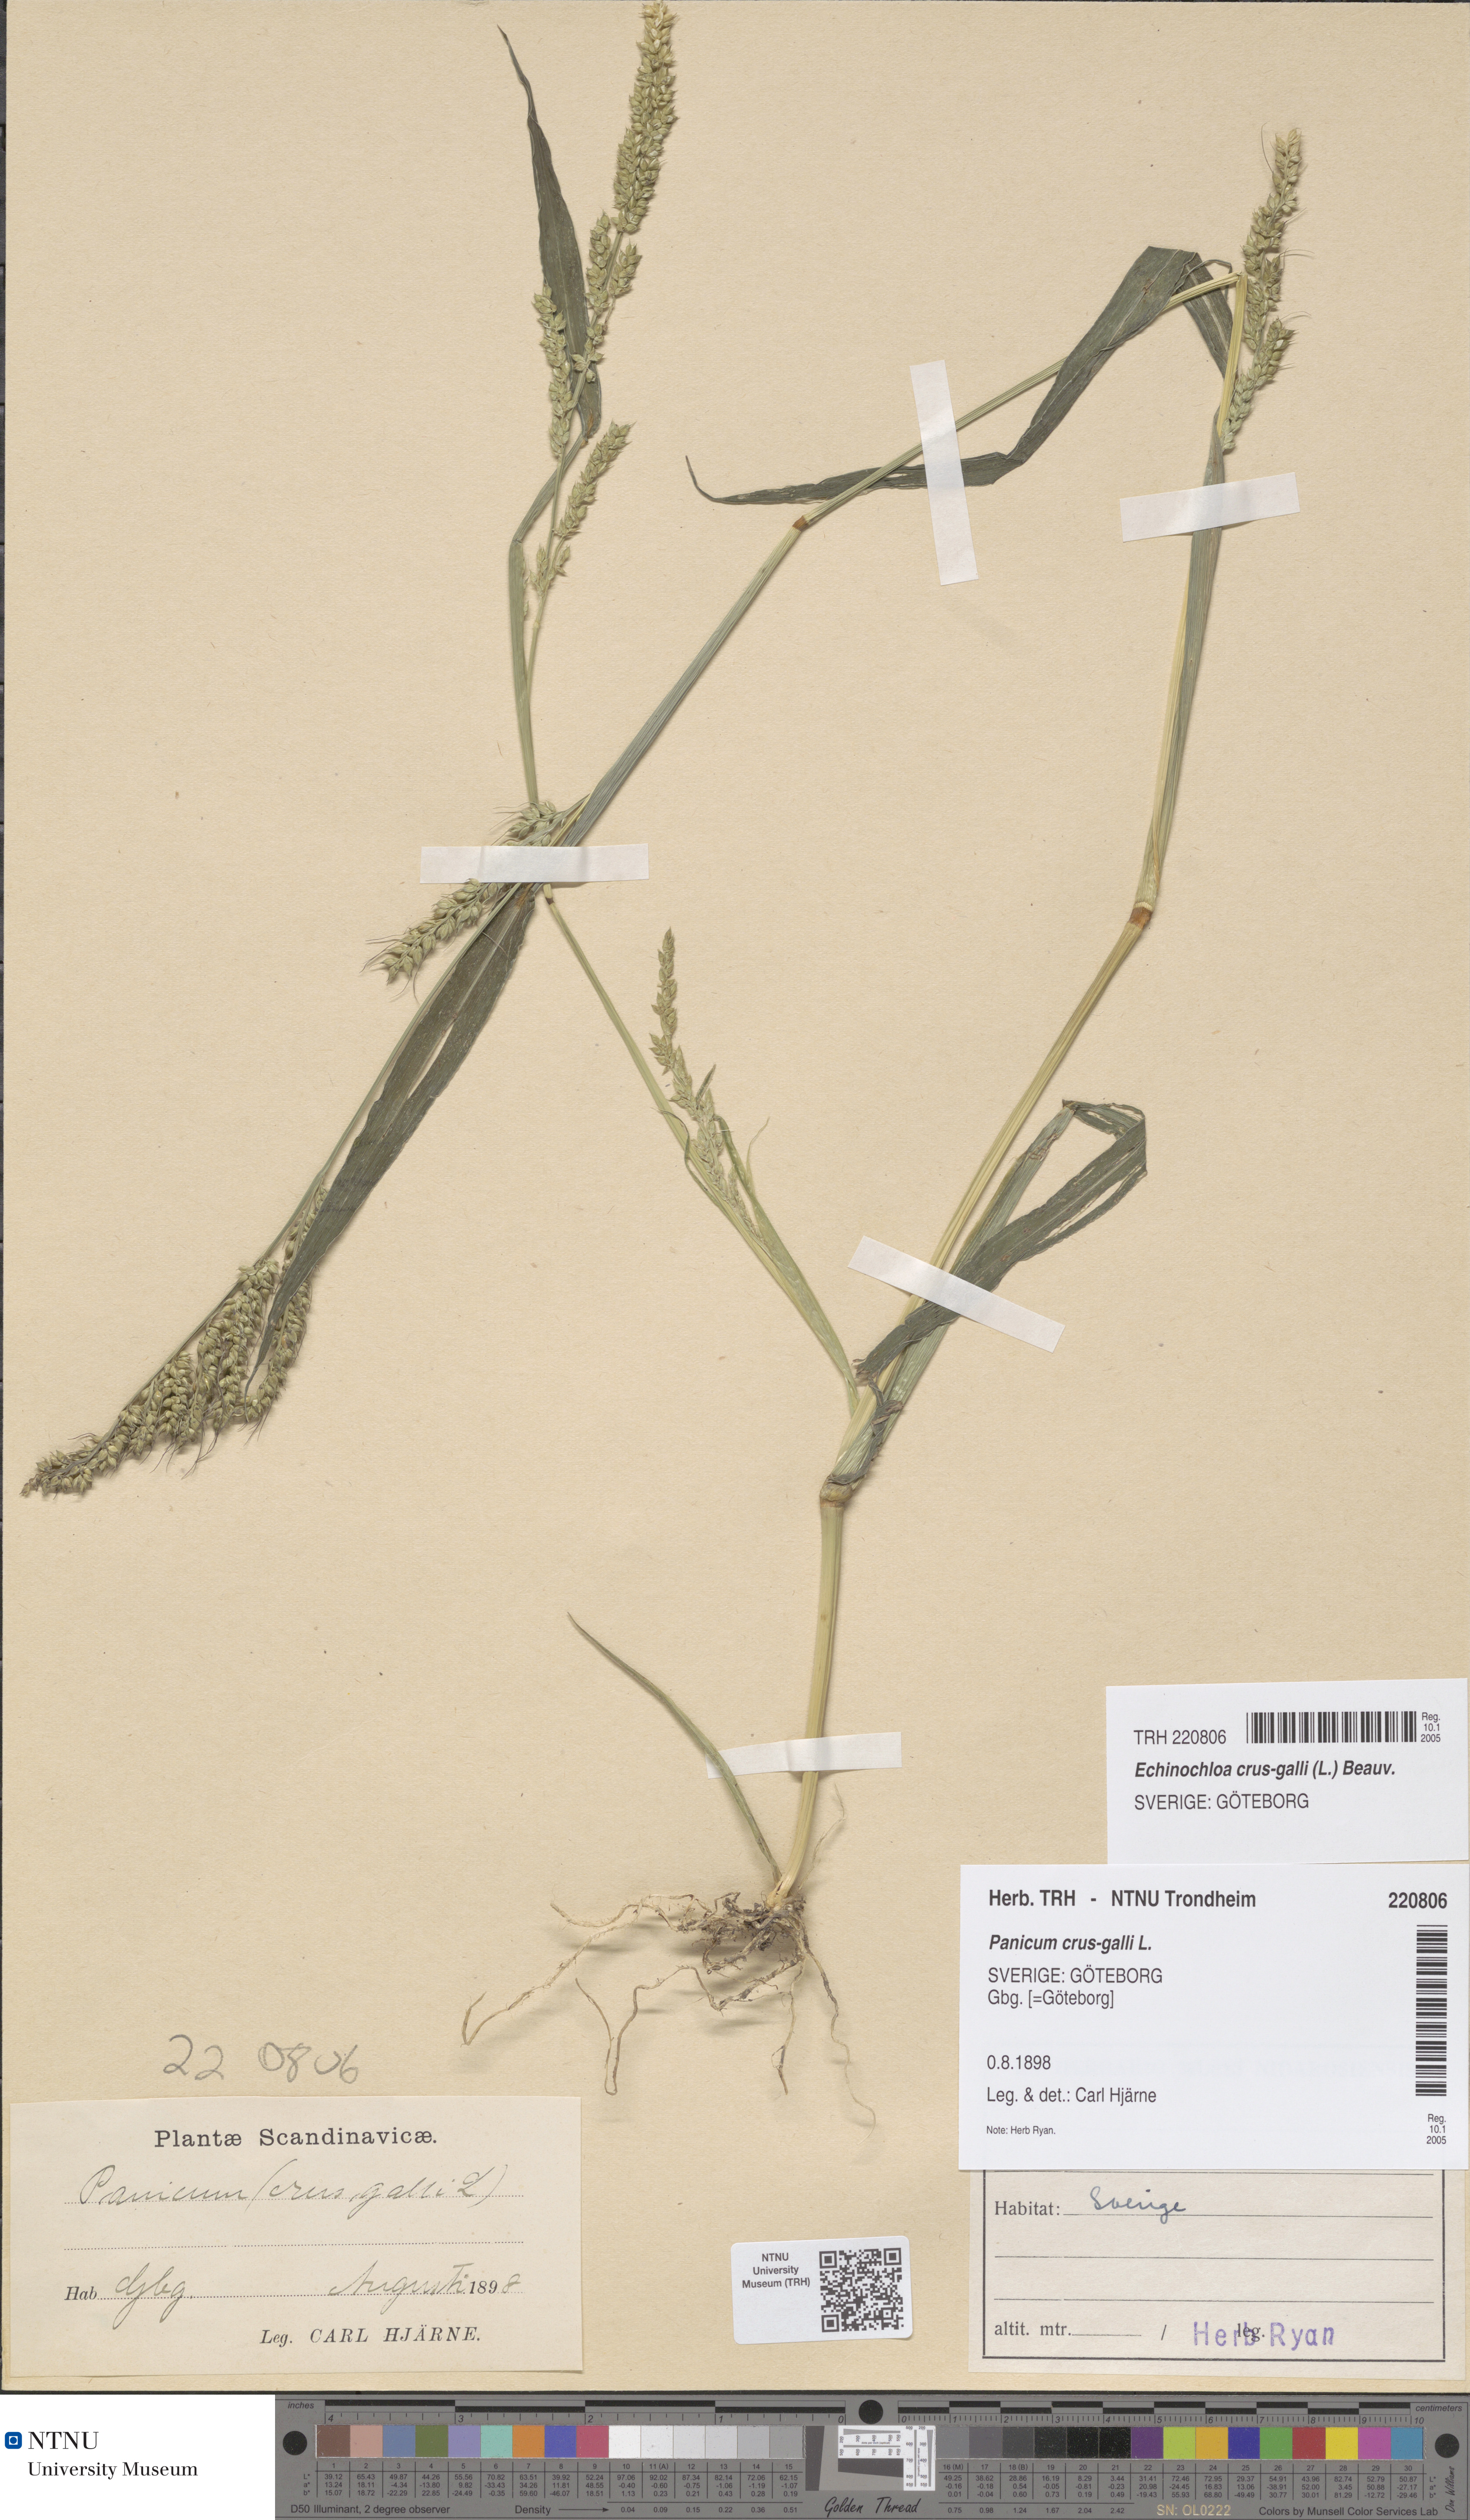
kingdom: Plantae
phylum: Tracheophyta
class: Liliopsida
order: Poales
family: Poaceae
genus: Echinochloa
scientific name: Echinochloa crus-galli
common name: Cockspur
